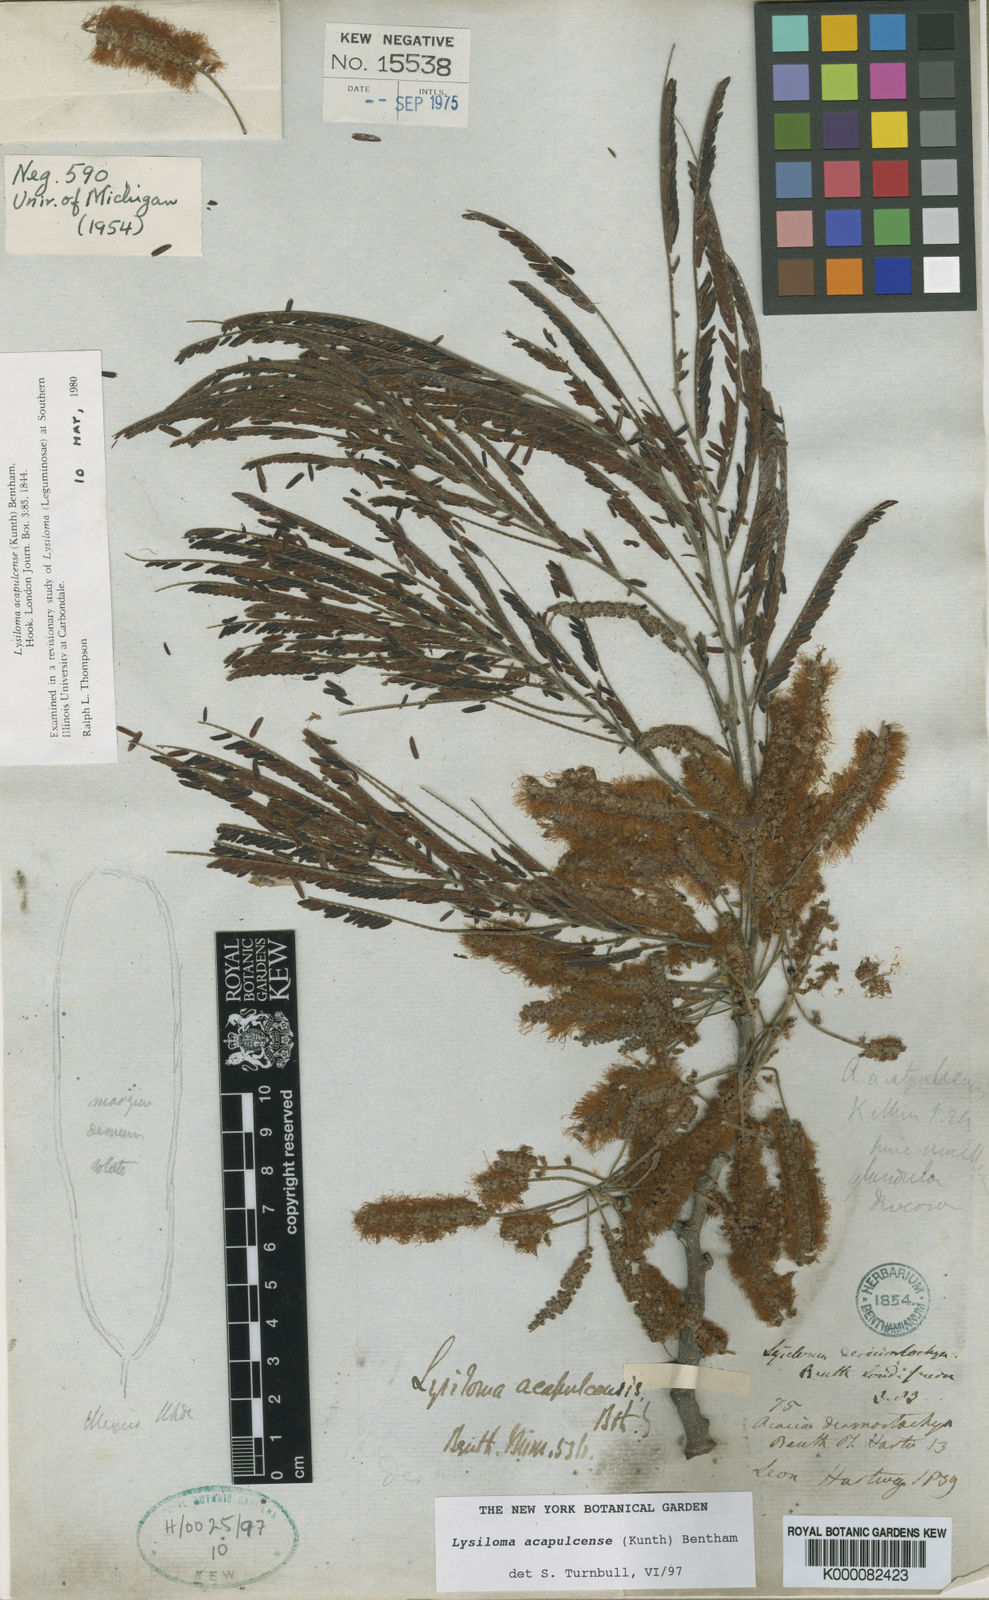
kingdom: Plantae
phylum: Tracheophyta
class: Magnoliopsida
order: Fabales
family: Fabaceae
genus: Lysiloma
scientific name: Lysiloma acapulcense
